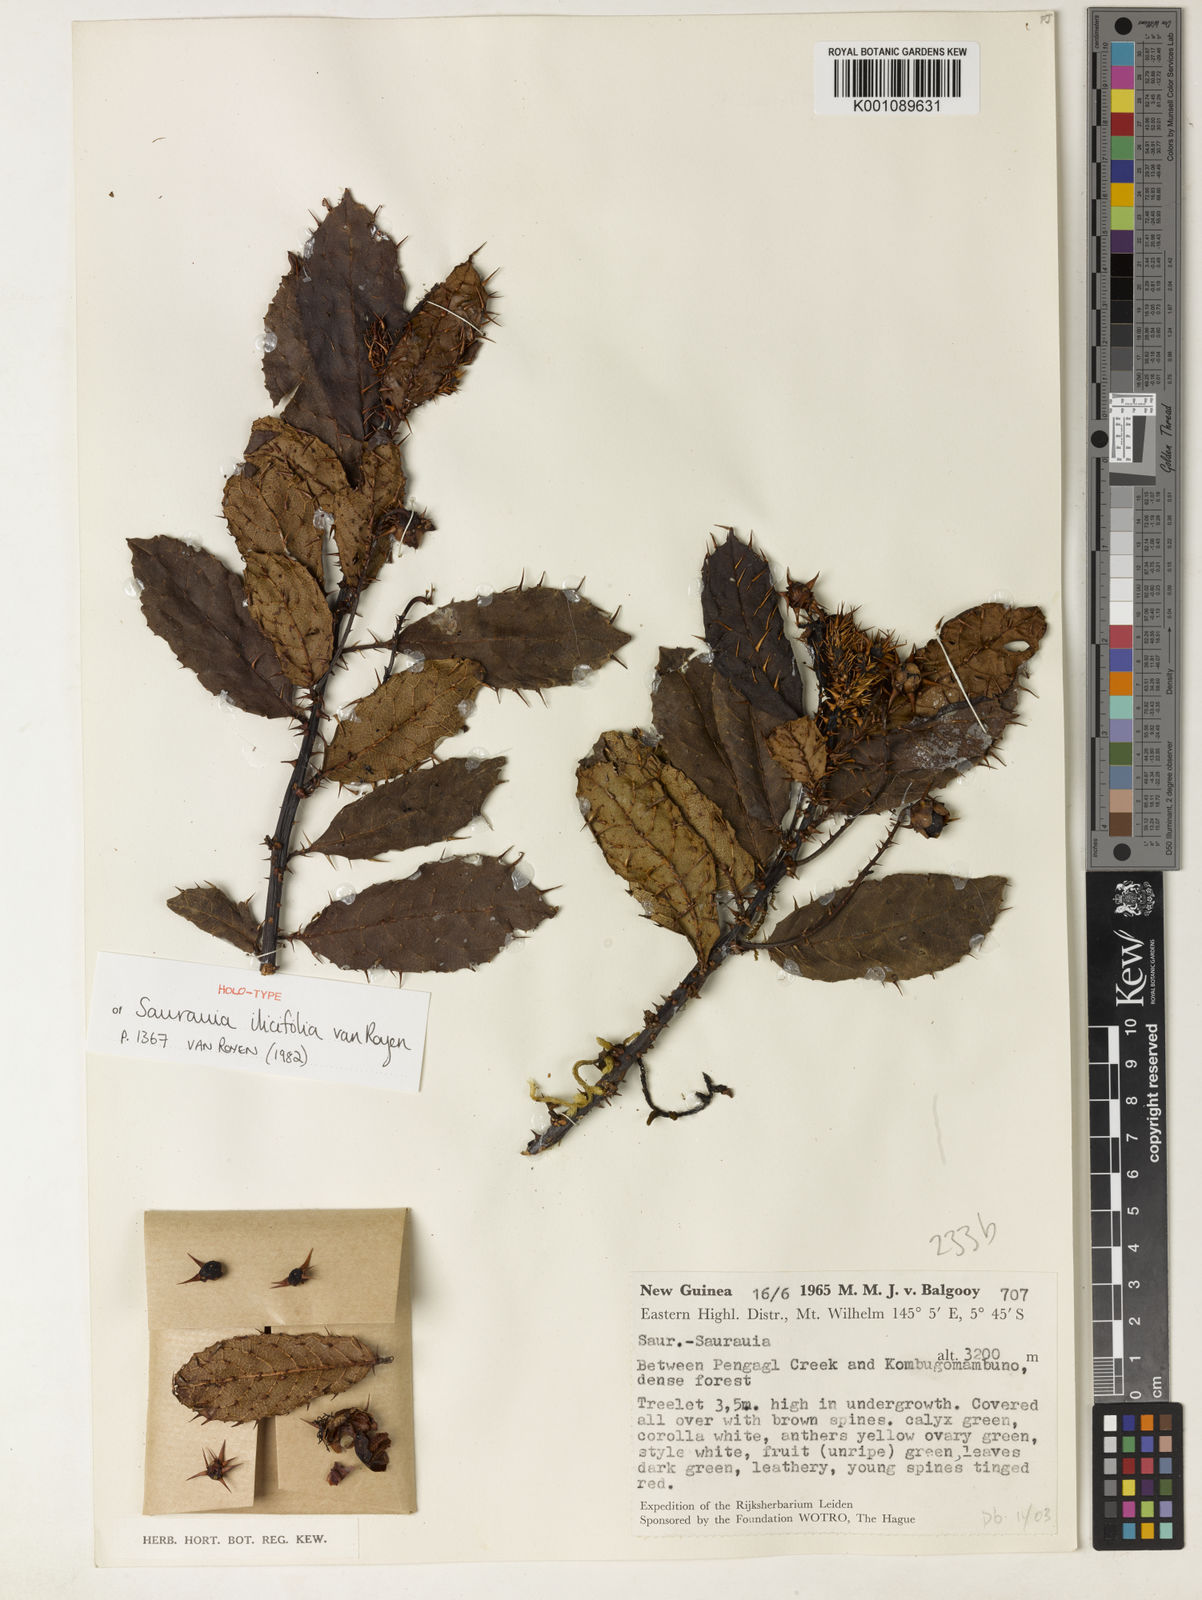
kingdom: Plantae
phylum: Tracheophyta
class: Magnoliopsida
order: Ericales
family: Actinidiaceae
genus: Saurauia
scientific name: Saurauia ilicifolia
